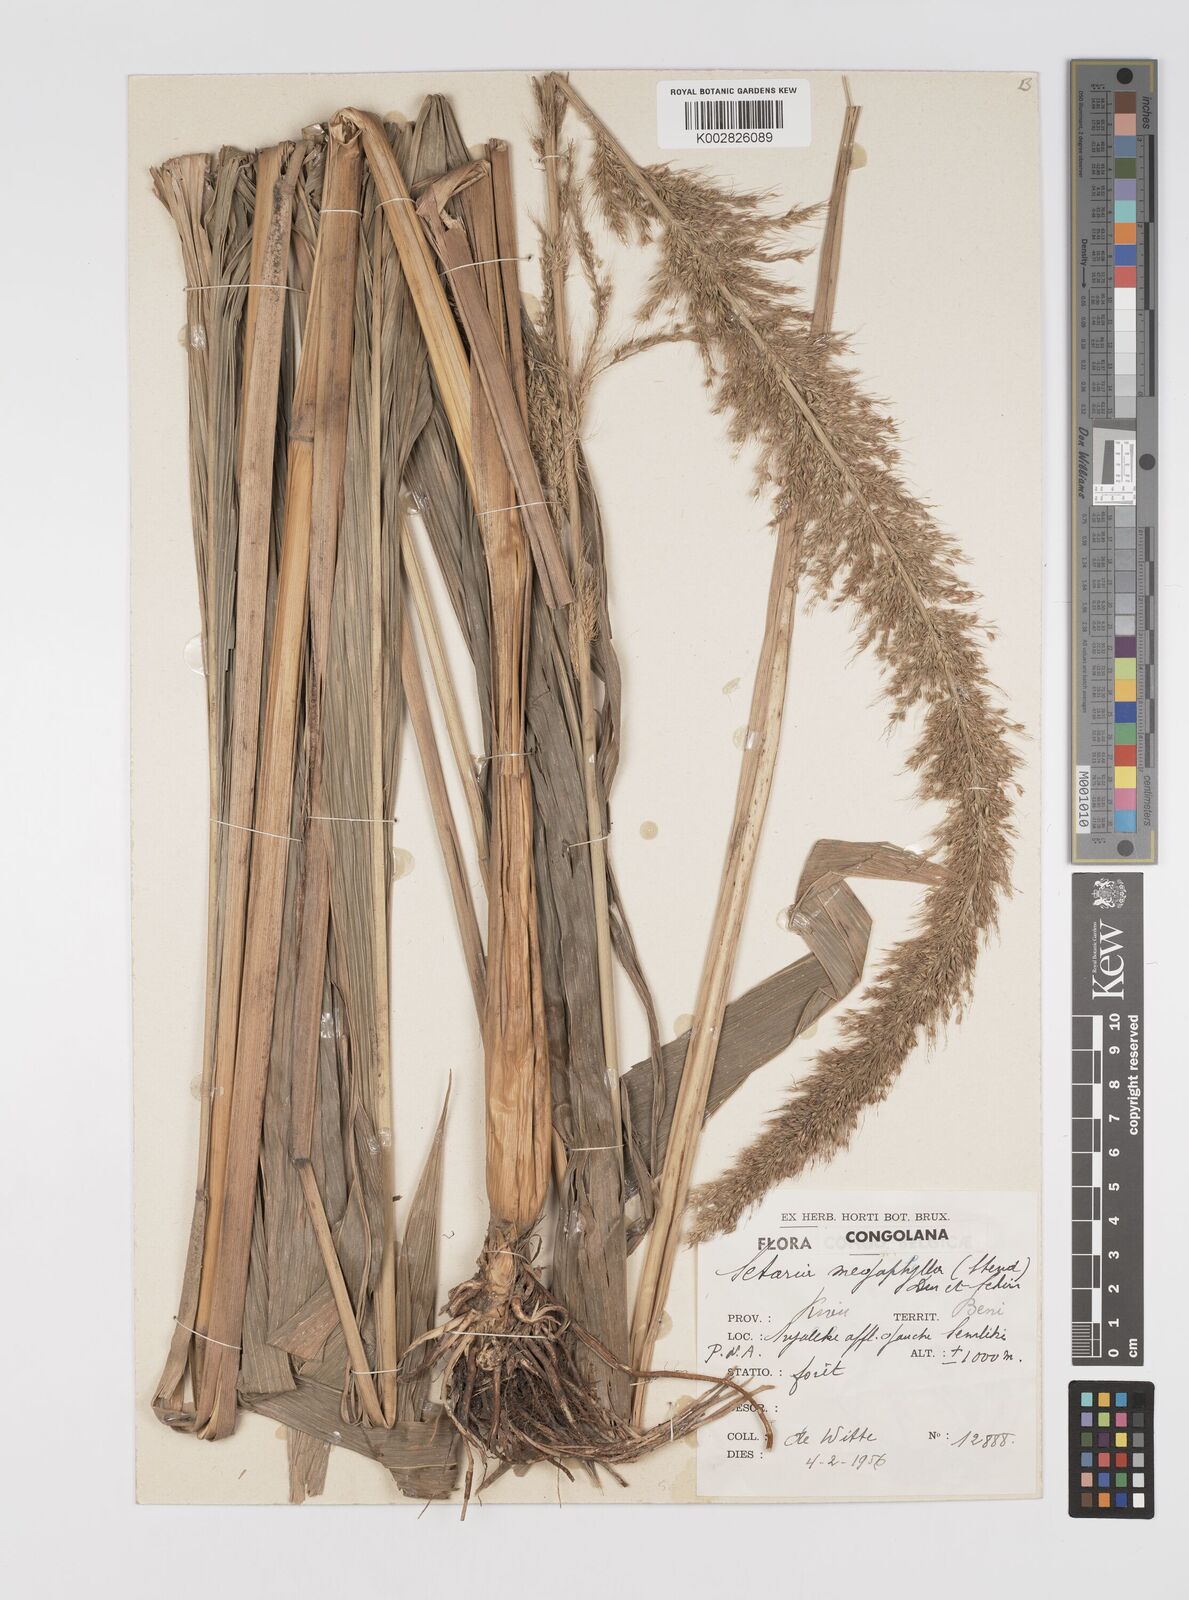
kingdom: Plantae
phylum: Tracheophyta
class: Liliopsida
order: Poales
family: Poaceae
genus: Setaria
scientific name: Setaria poiretiana
